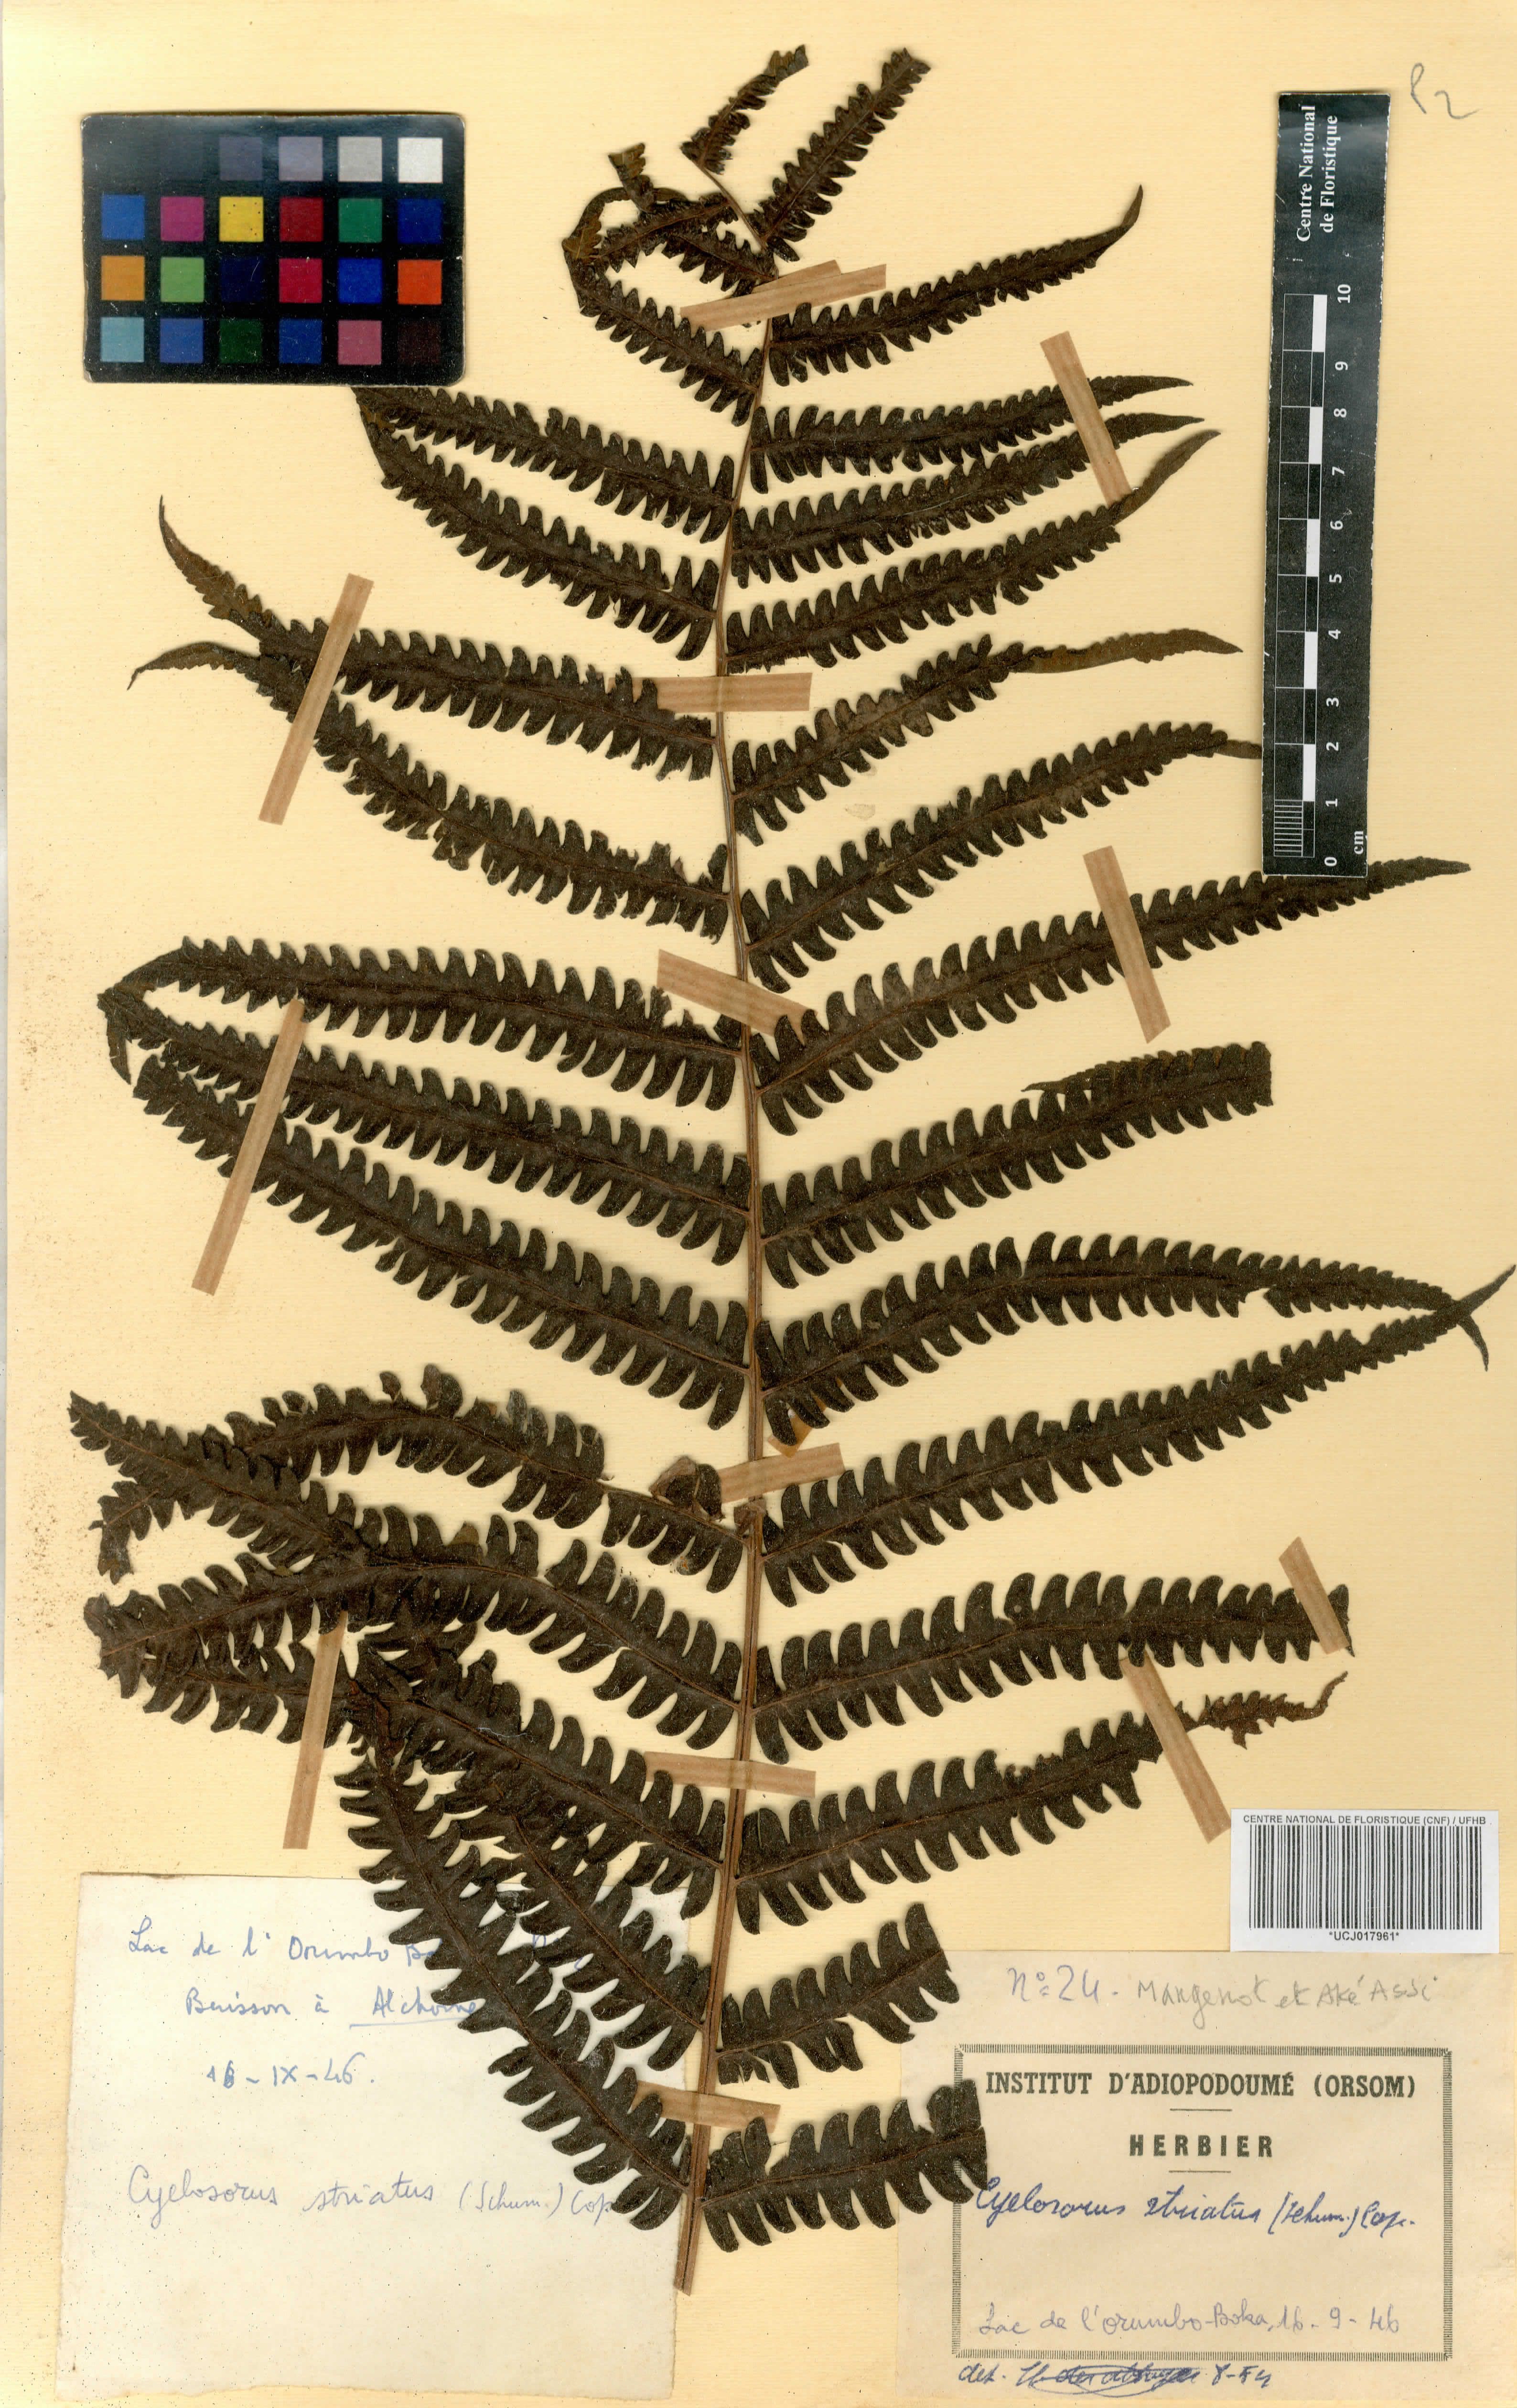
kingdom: Plantae
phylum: Tracheophyta
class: Polypodiopsida
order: Polypodiales
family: Thelypteridaceae
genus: Cyclosorus
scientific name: Cyclosorus striatus
